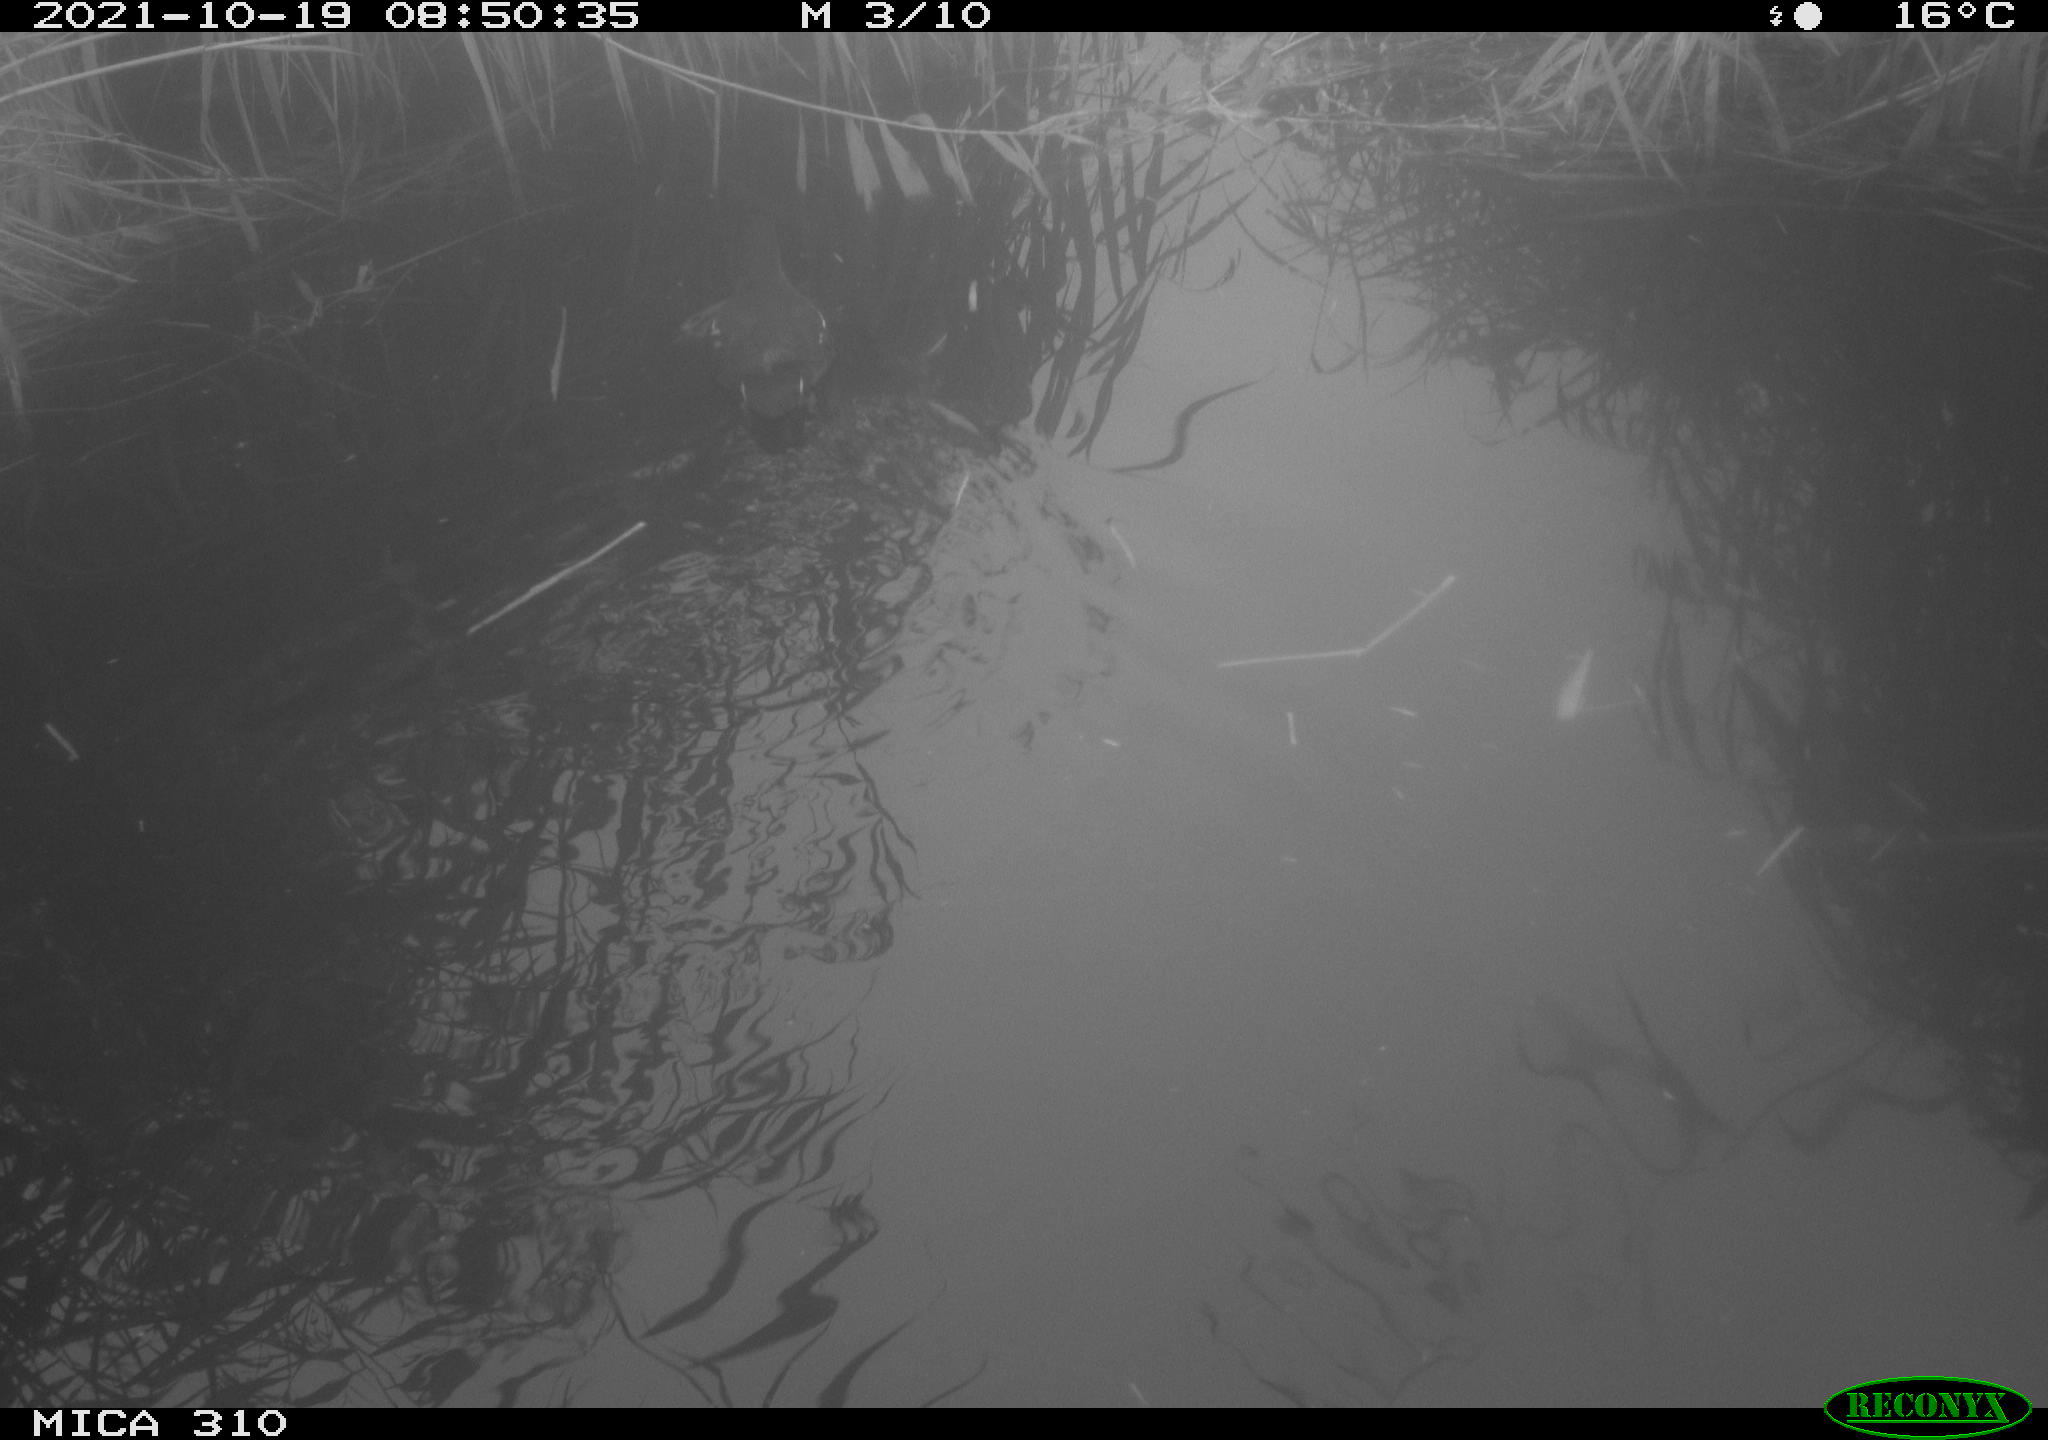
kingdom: Animalia
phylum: Chordata
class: Aves
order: Gruiformes
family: Rallidae
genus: Gallinula
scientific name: Gallinula chloropus
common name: Common moorhen
